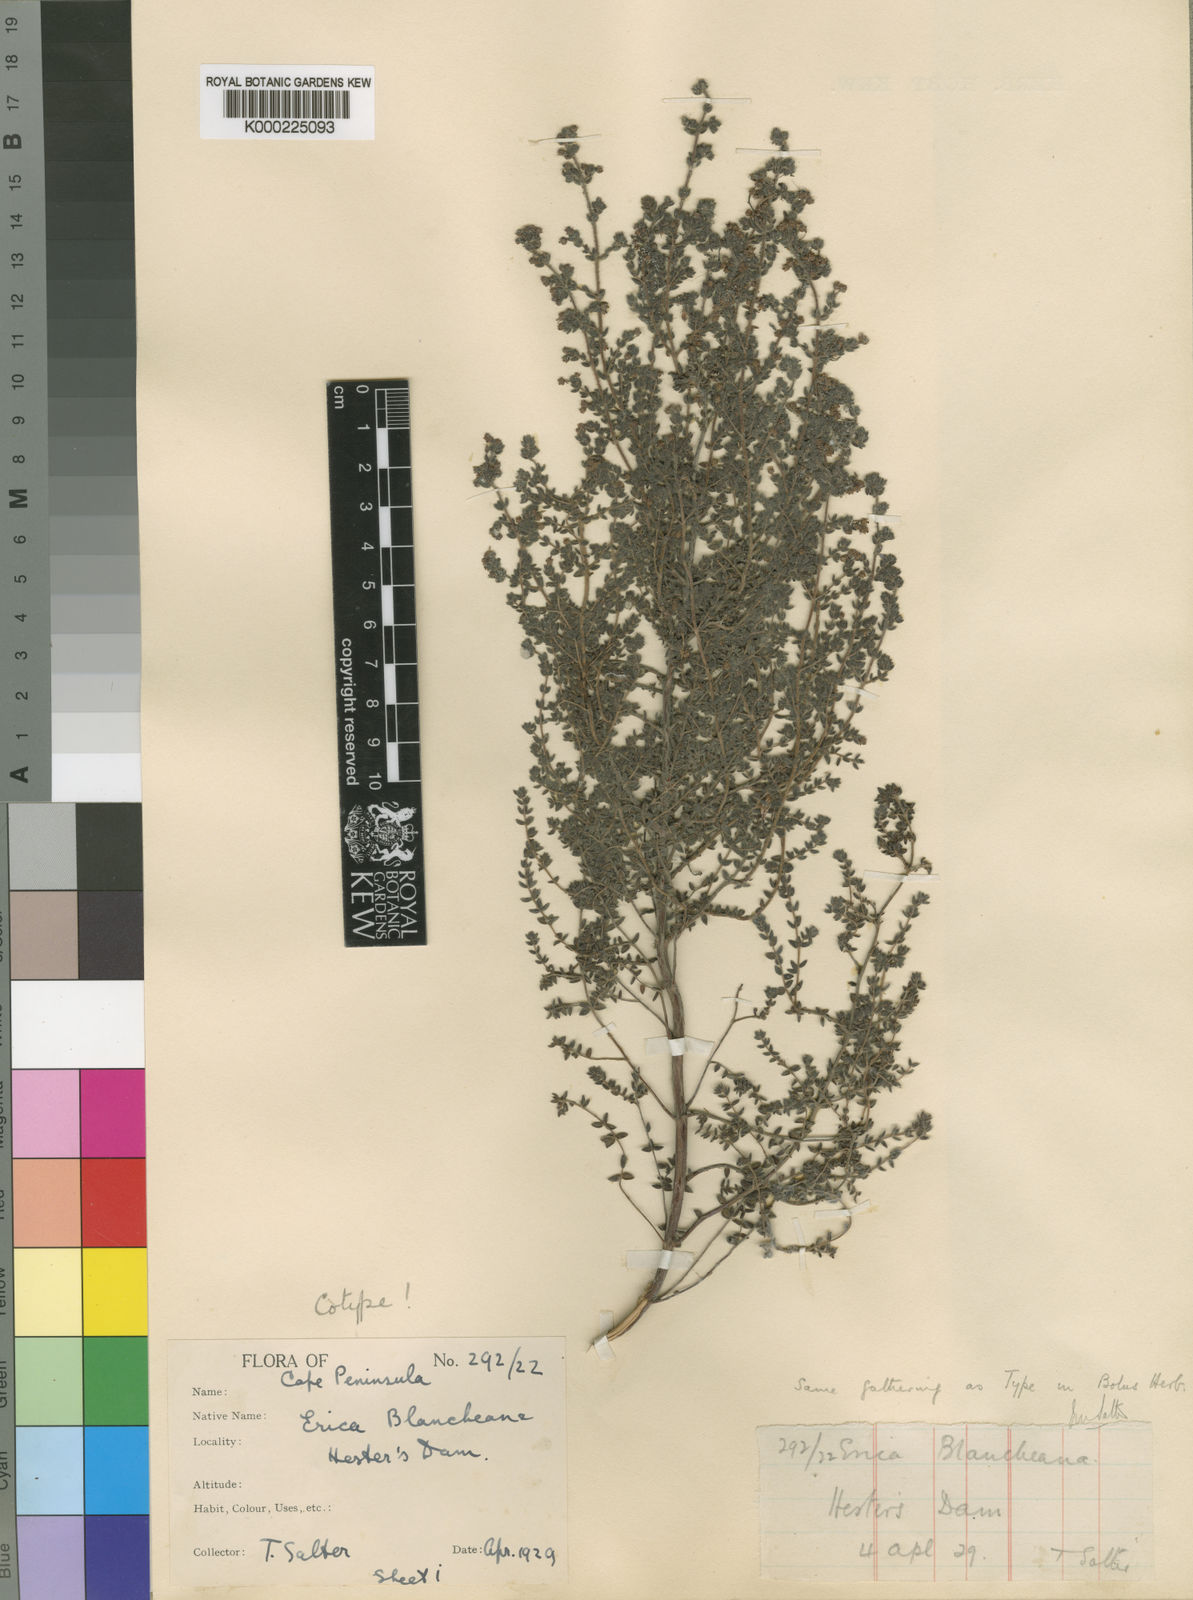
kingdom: Plantae
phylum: Tracheophyta
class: Magnoliopsida
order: Ericales
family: Ericaceae
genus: Erica
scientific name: Erica blancheana
